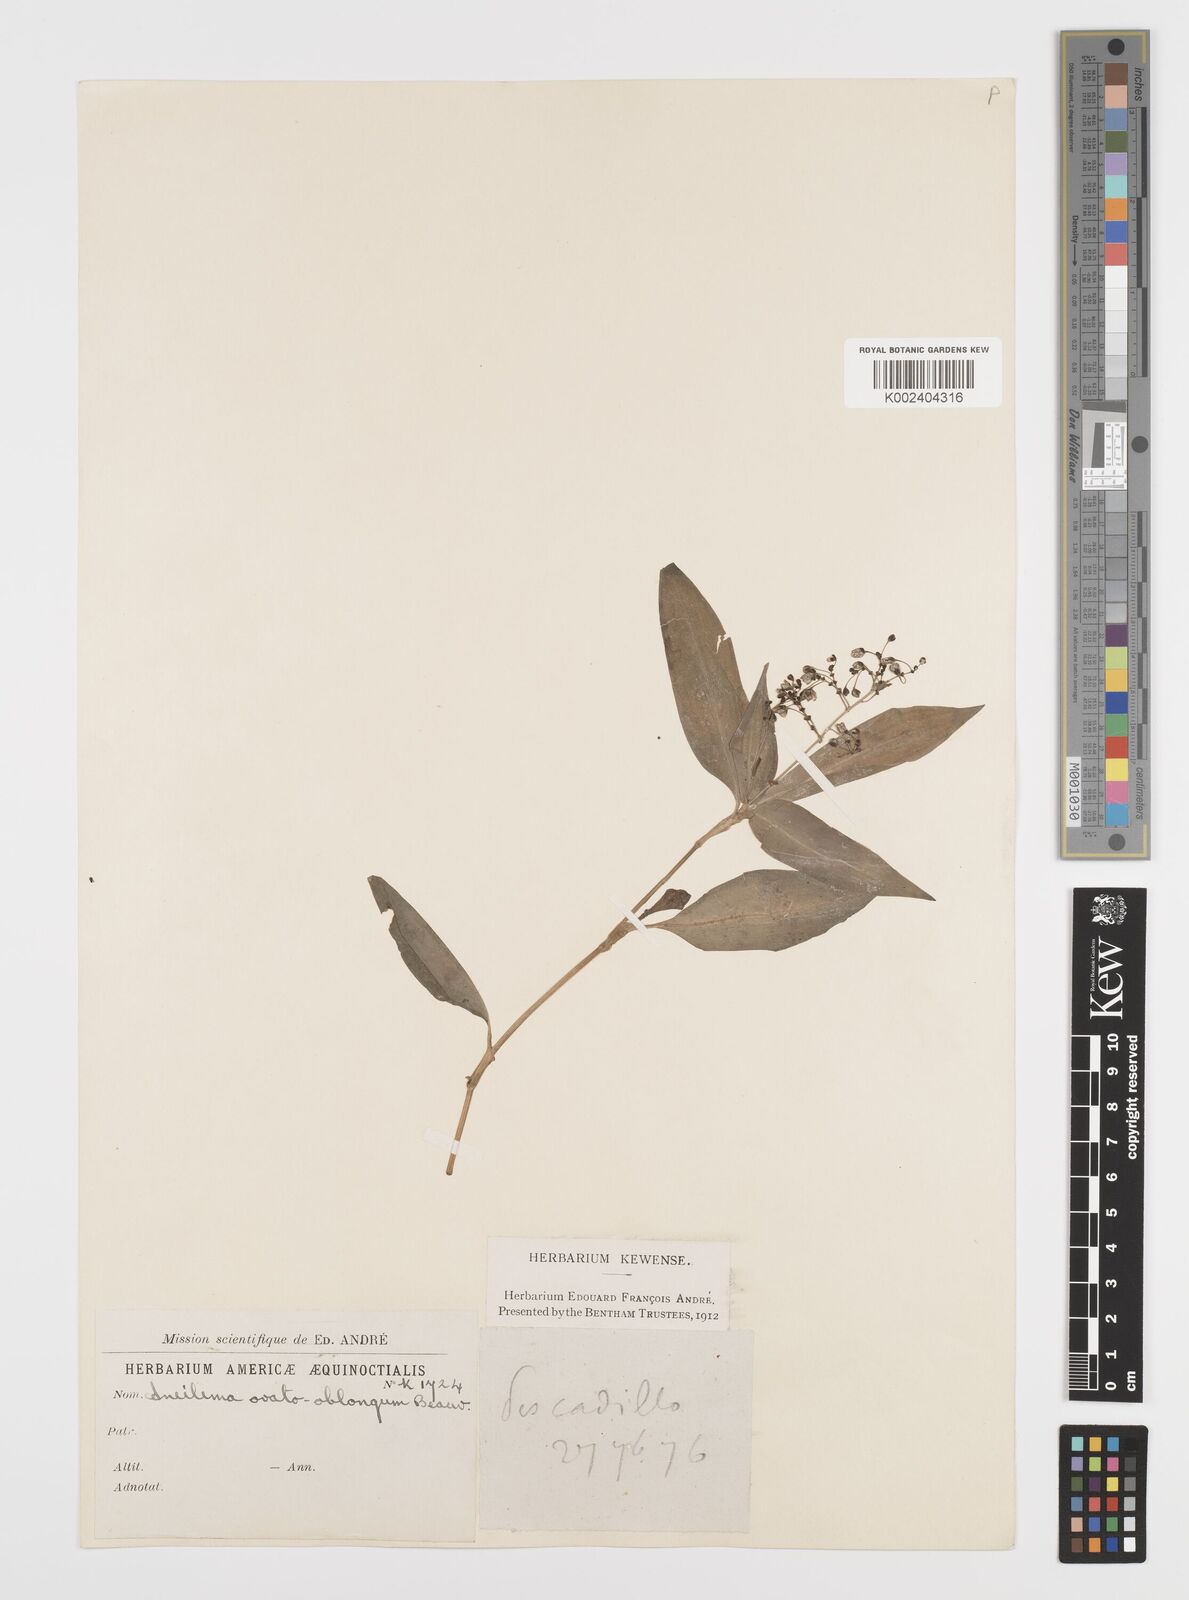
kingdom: Plantae
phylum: Tracheophyta
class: Liliopsida
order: Commelinales
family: Commelinaceae
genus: Aneilema
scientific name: Aneilema umbrosum
